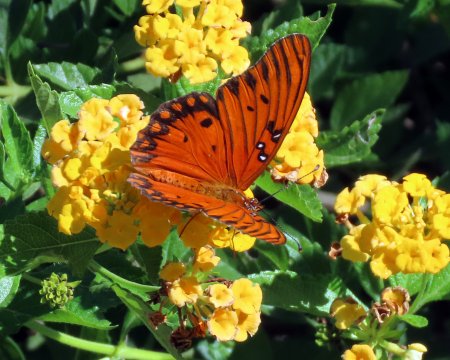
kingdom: Animalia
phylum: Arthropoda
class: Insecta
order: Lepidoptera
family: Nymphalidae
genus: Dione
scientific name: Dione vanillae
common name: Gulf Fritillary
